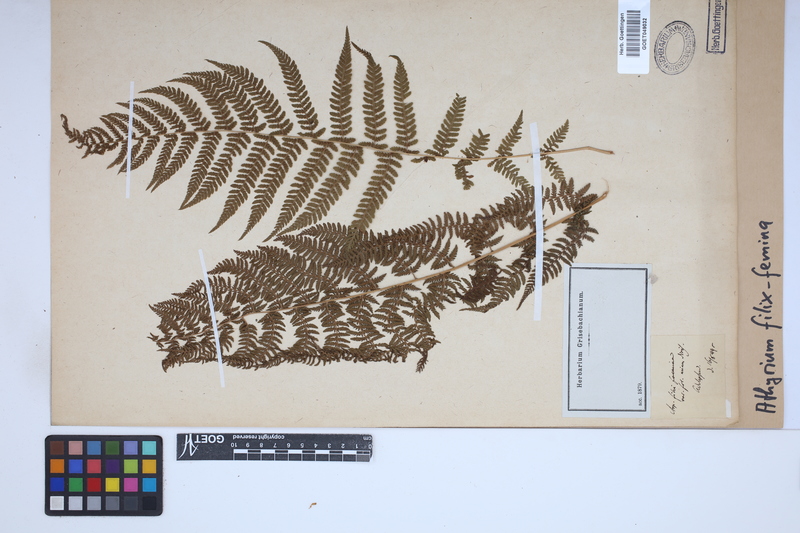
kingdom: Plantae
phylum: Tracheophyta
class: Polypodiopsida
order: Polypodiales
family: Athyriaceae
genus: Athyrium
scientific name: Athyrium filix-femina
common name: Lady fern
